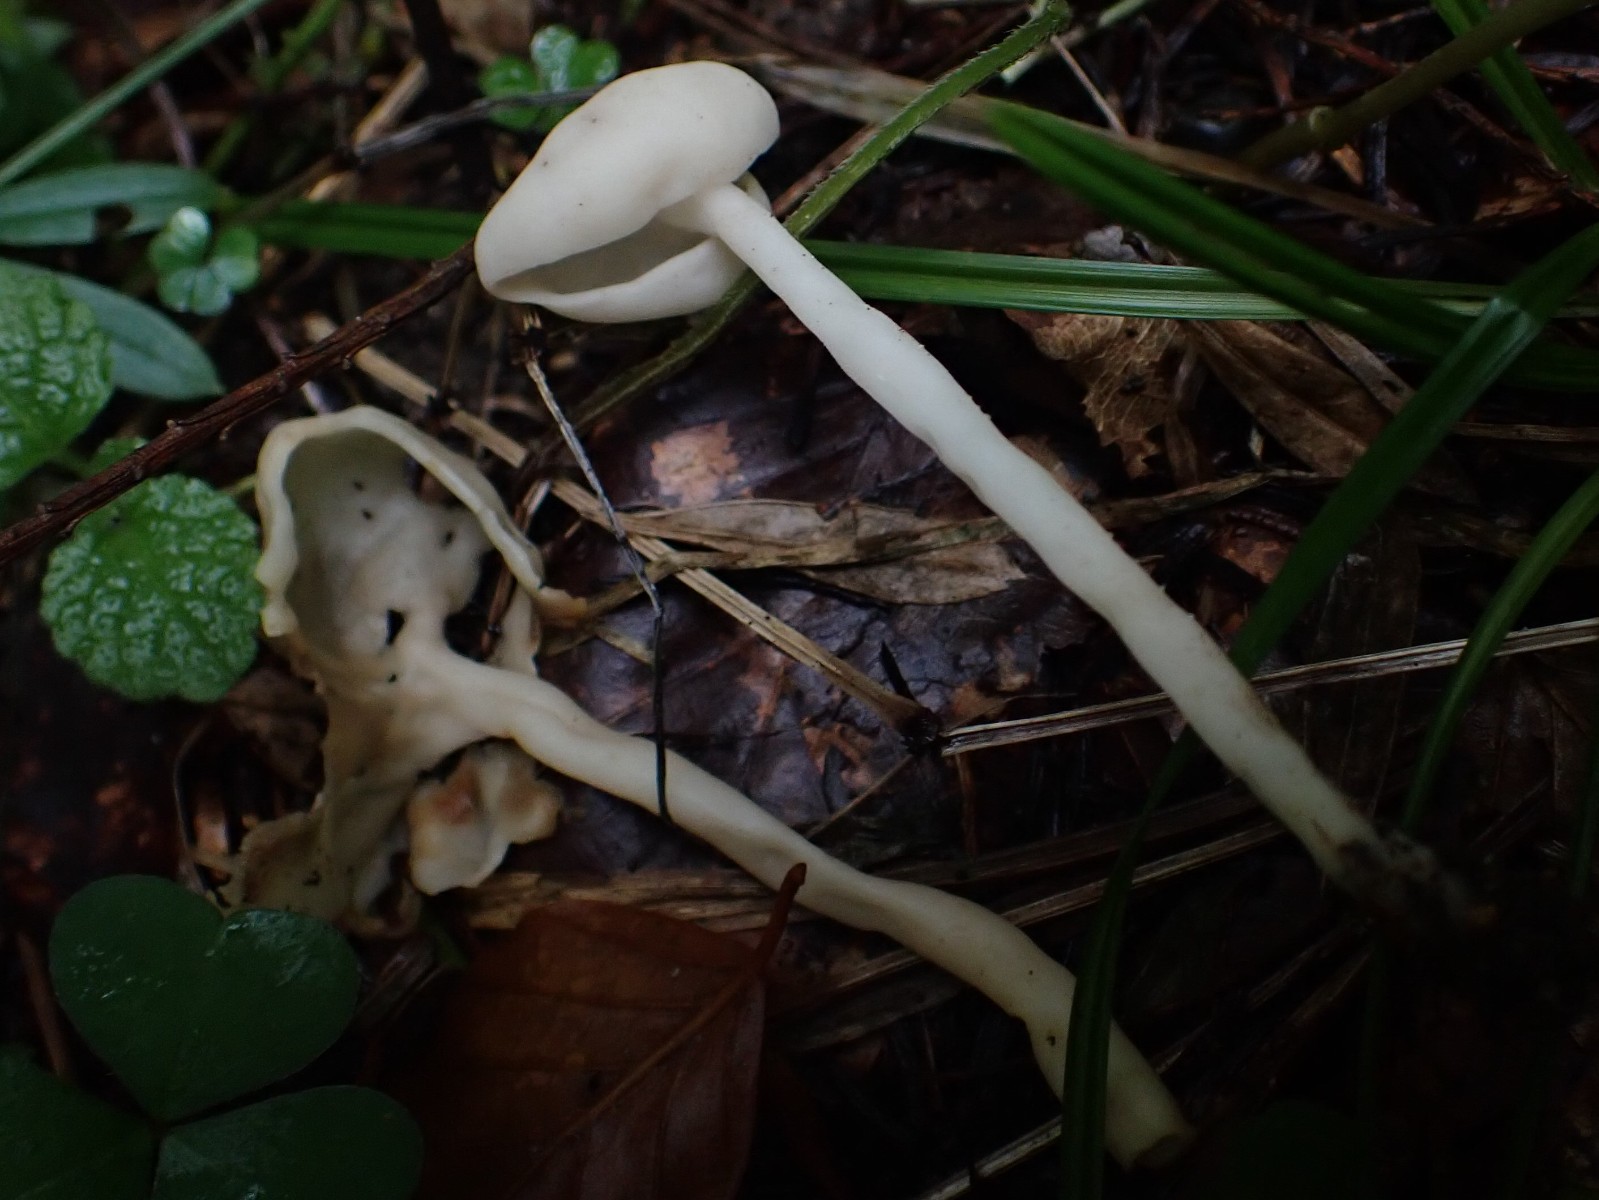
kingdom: Fungi
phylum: Ascomycota
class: Pezizomycetes
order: Pezizales
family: Helvellaceae
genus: Helvella
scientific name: Helvella elastica
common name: elastik-foldhat
